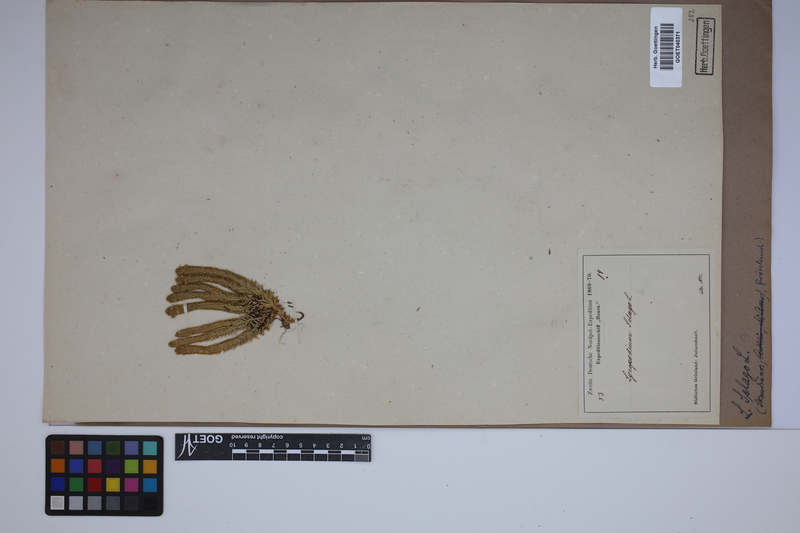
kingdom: Plantae
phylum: Tracheophyta
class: Lycopodiopsida
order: Lycopodiales
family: Lycopodiaceae
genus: Huperzia
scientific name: Huperzia selago
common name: Northern firmoss
